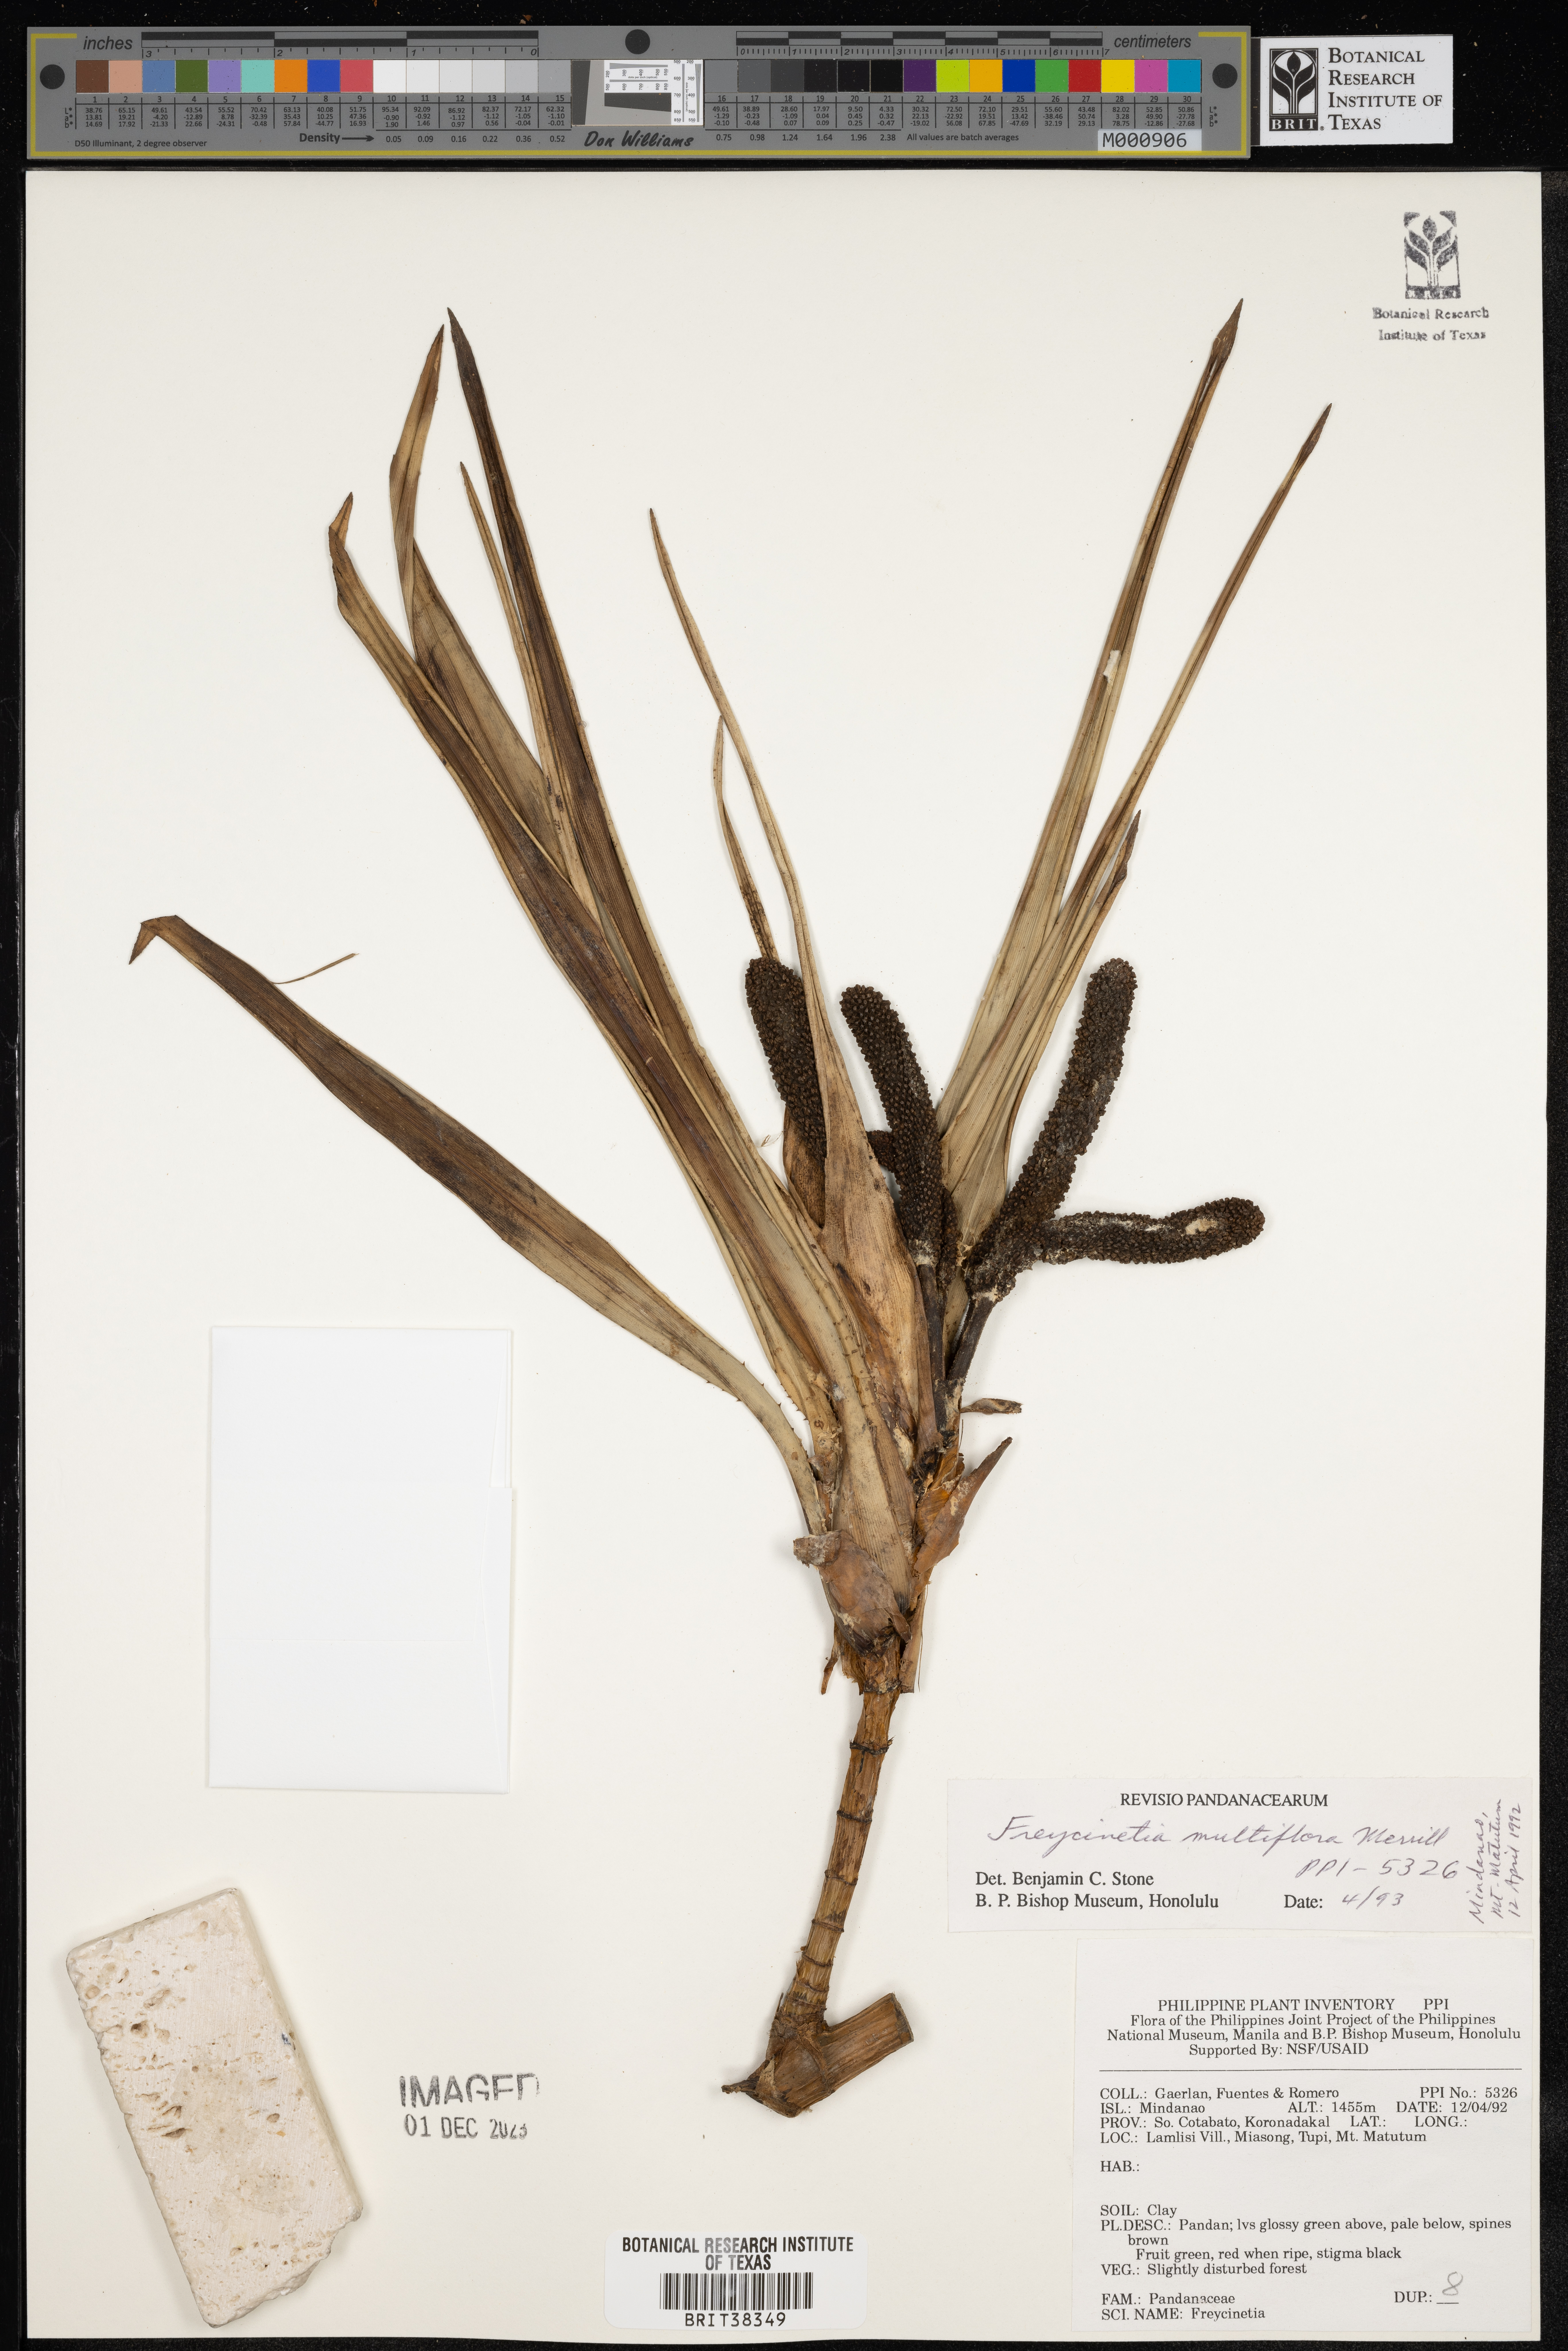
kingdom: Plantae
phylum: Tracheophyta
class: Liliopsida
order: Pandanales
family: Pandanaceae
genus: Freycinetia
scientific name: Freycinetia multiflora
